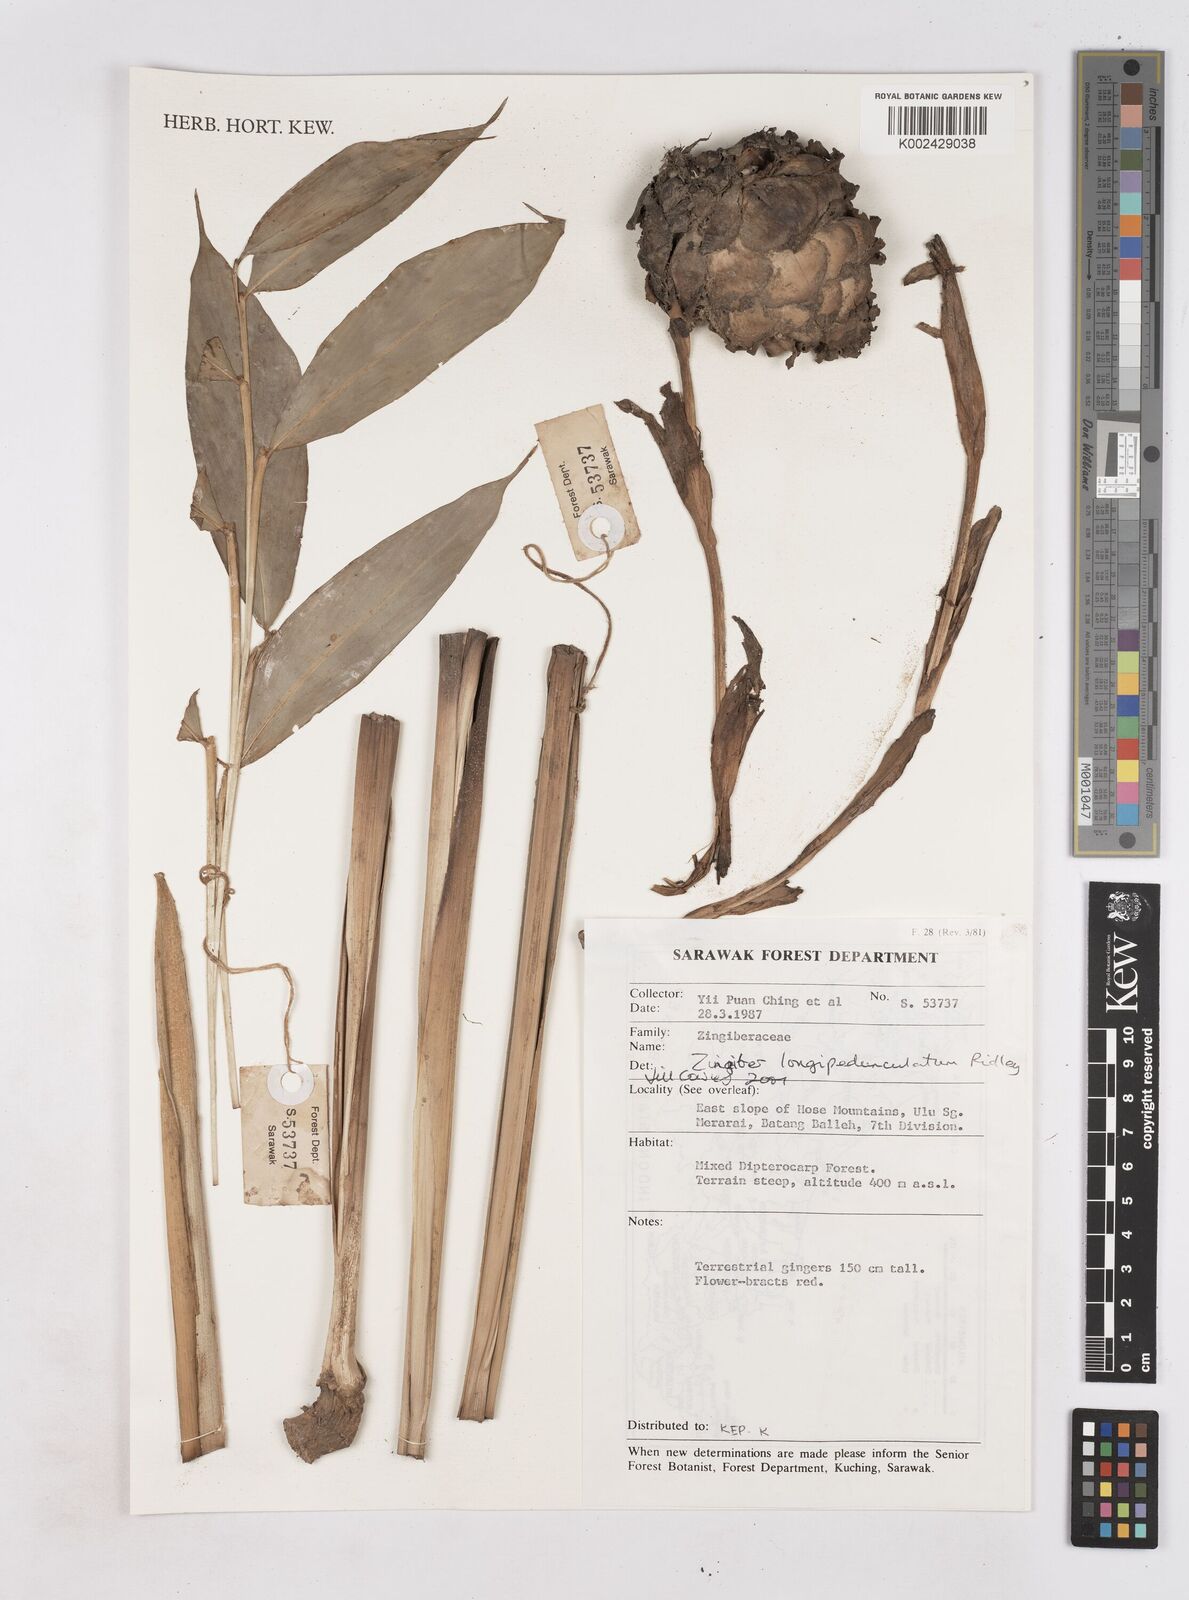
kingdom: Plantae
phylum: Tracheophyta
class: Liliopsida
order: Zingiberales
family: Zingiberaceae
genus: Zingiber
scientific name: Zingiber longipedunculatum
